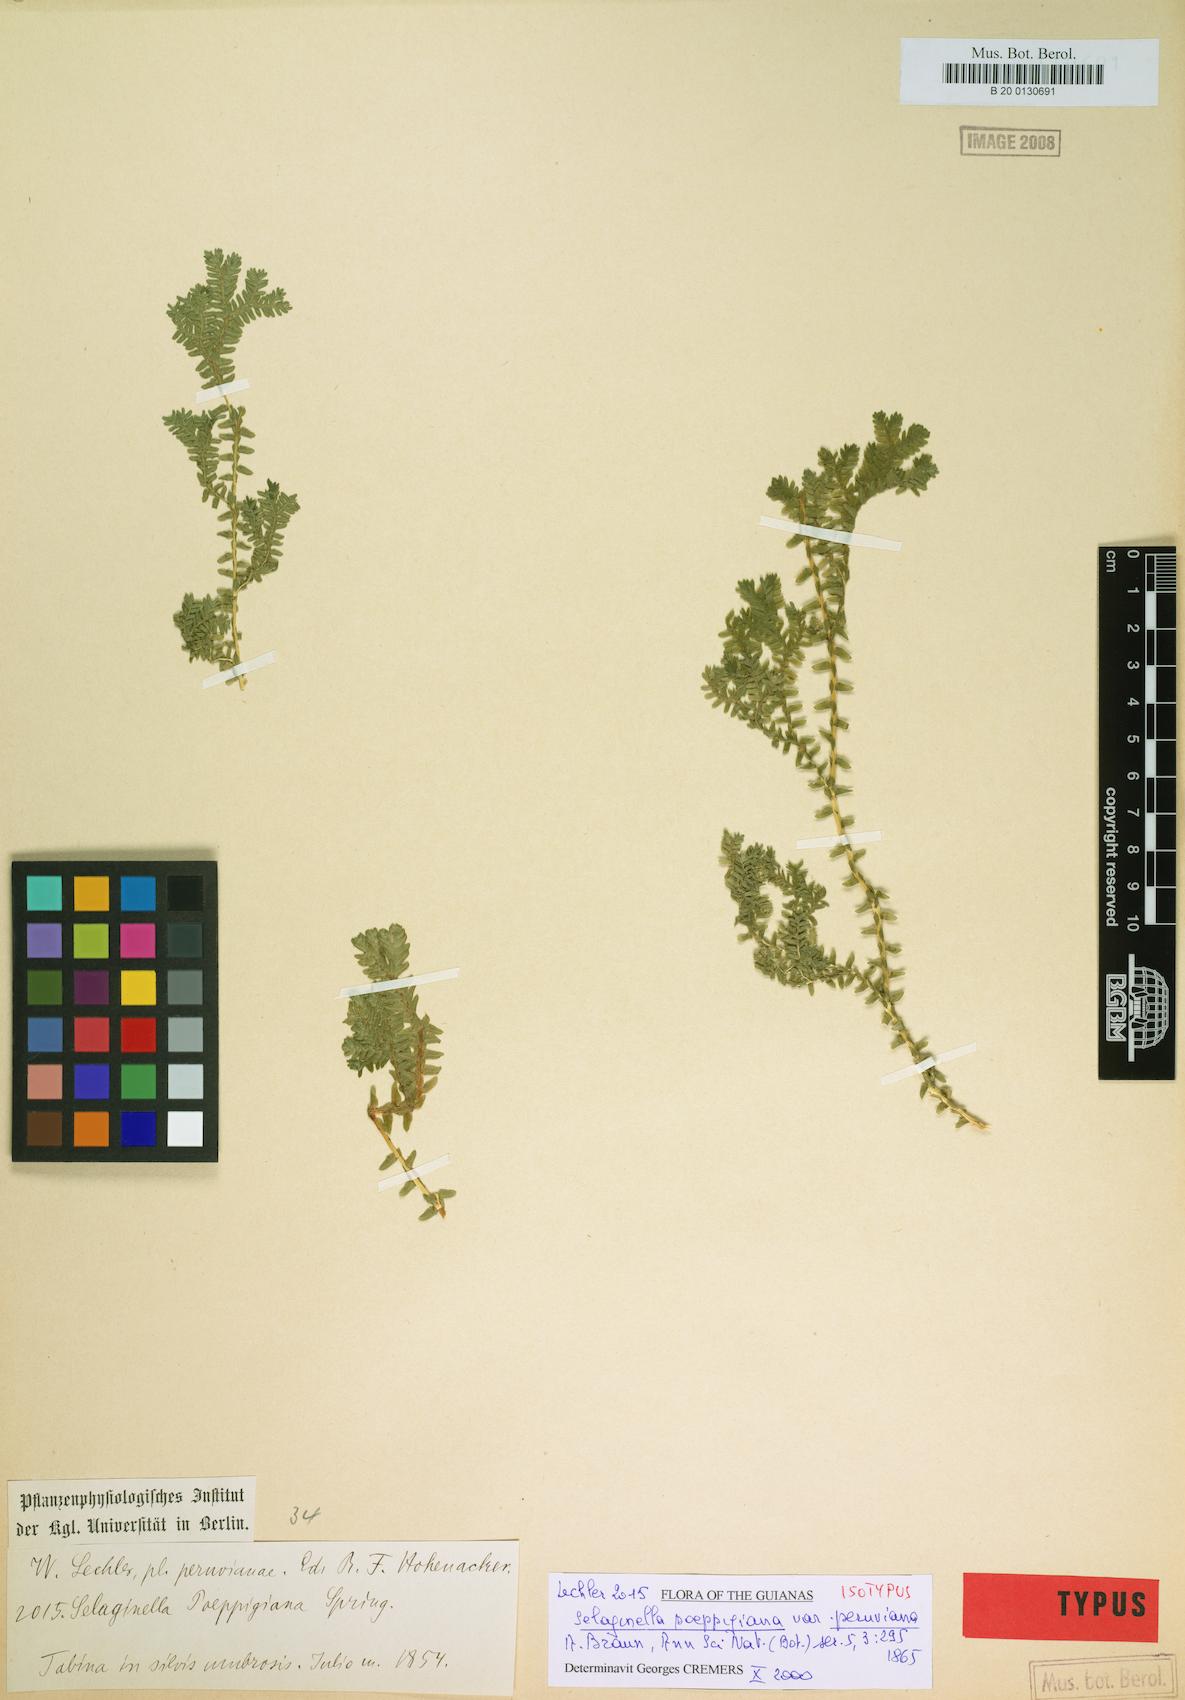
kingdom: Plantae
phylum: Tracheophyta
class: Lycopodiopsida
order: Selaginellales
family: Selaginellaceae
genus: Selaginella
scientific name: Selaginella trisulcata
